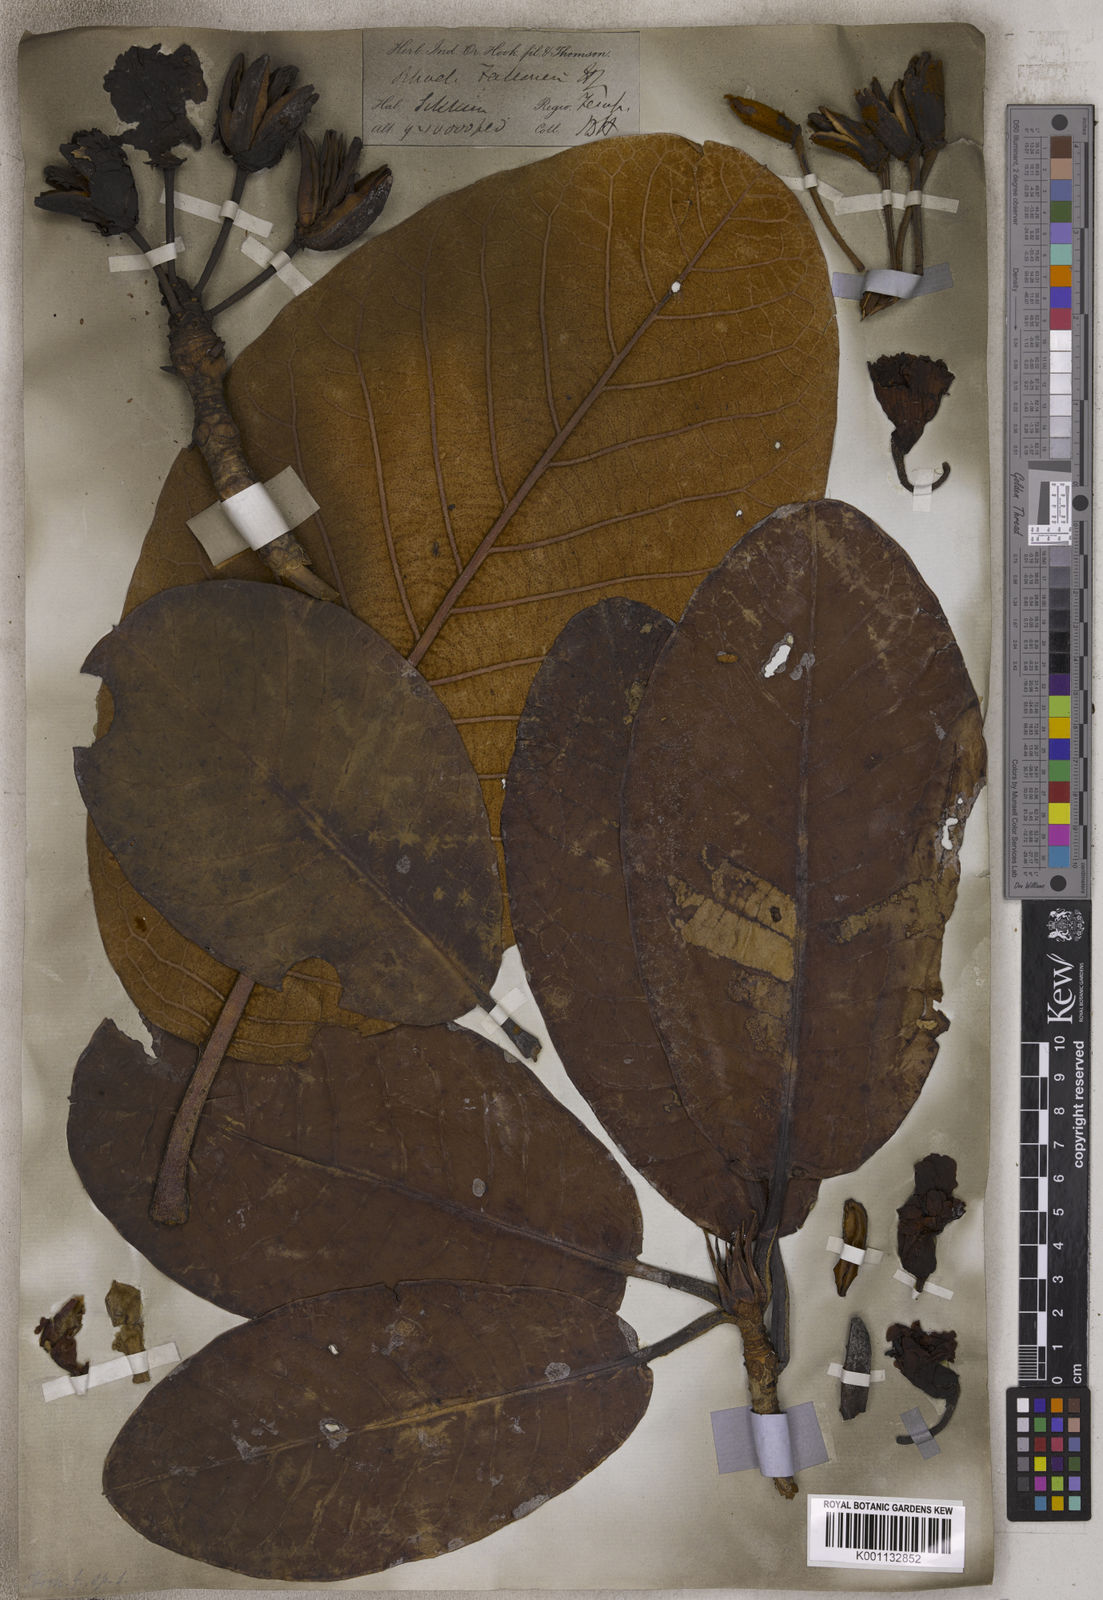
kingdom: Plantae
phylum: Tracheophyta
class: Magnoliopsida
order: Ericales
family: Ericaceae
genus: Rhododendron
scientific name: Rhododendron falconeri
